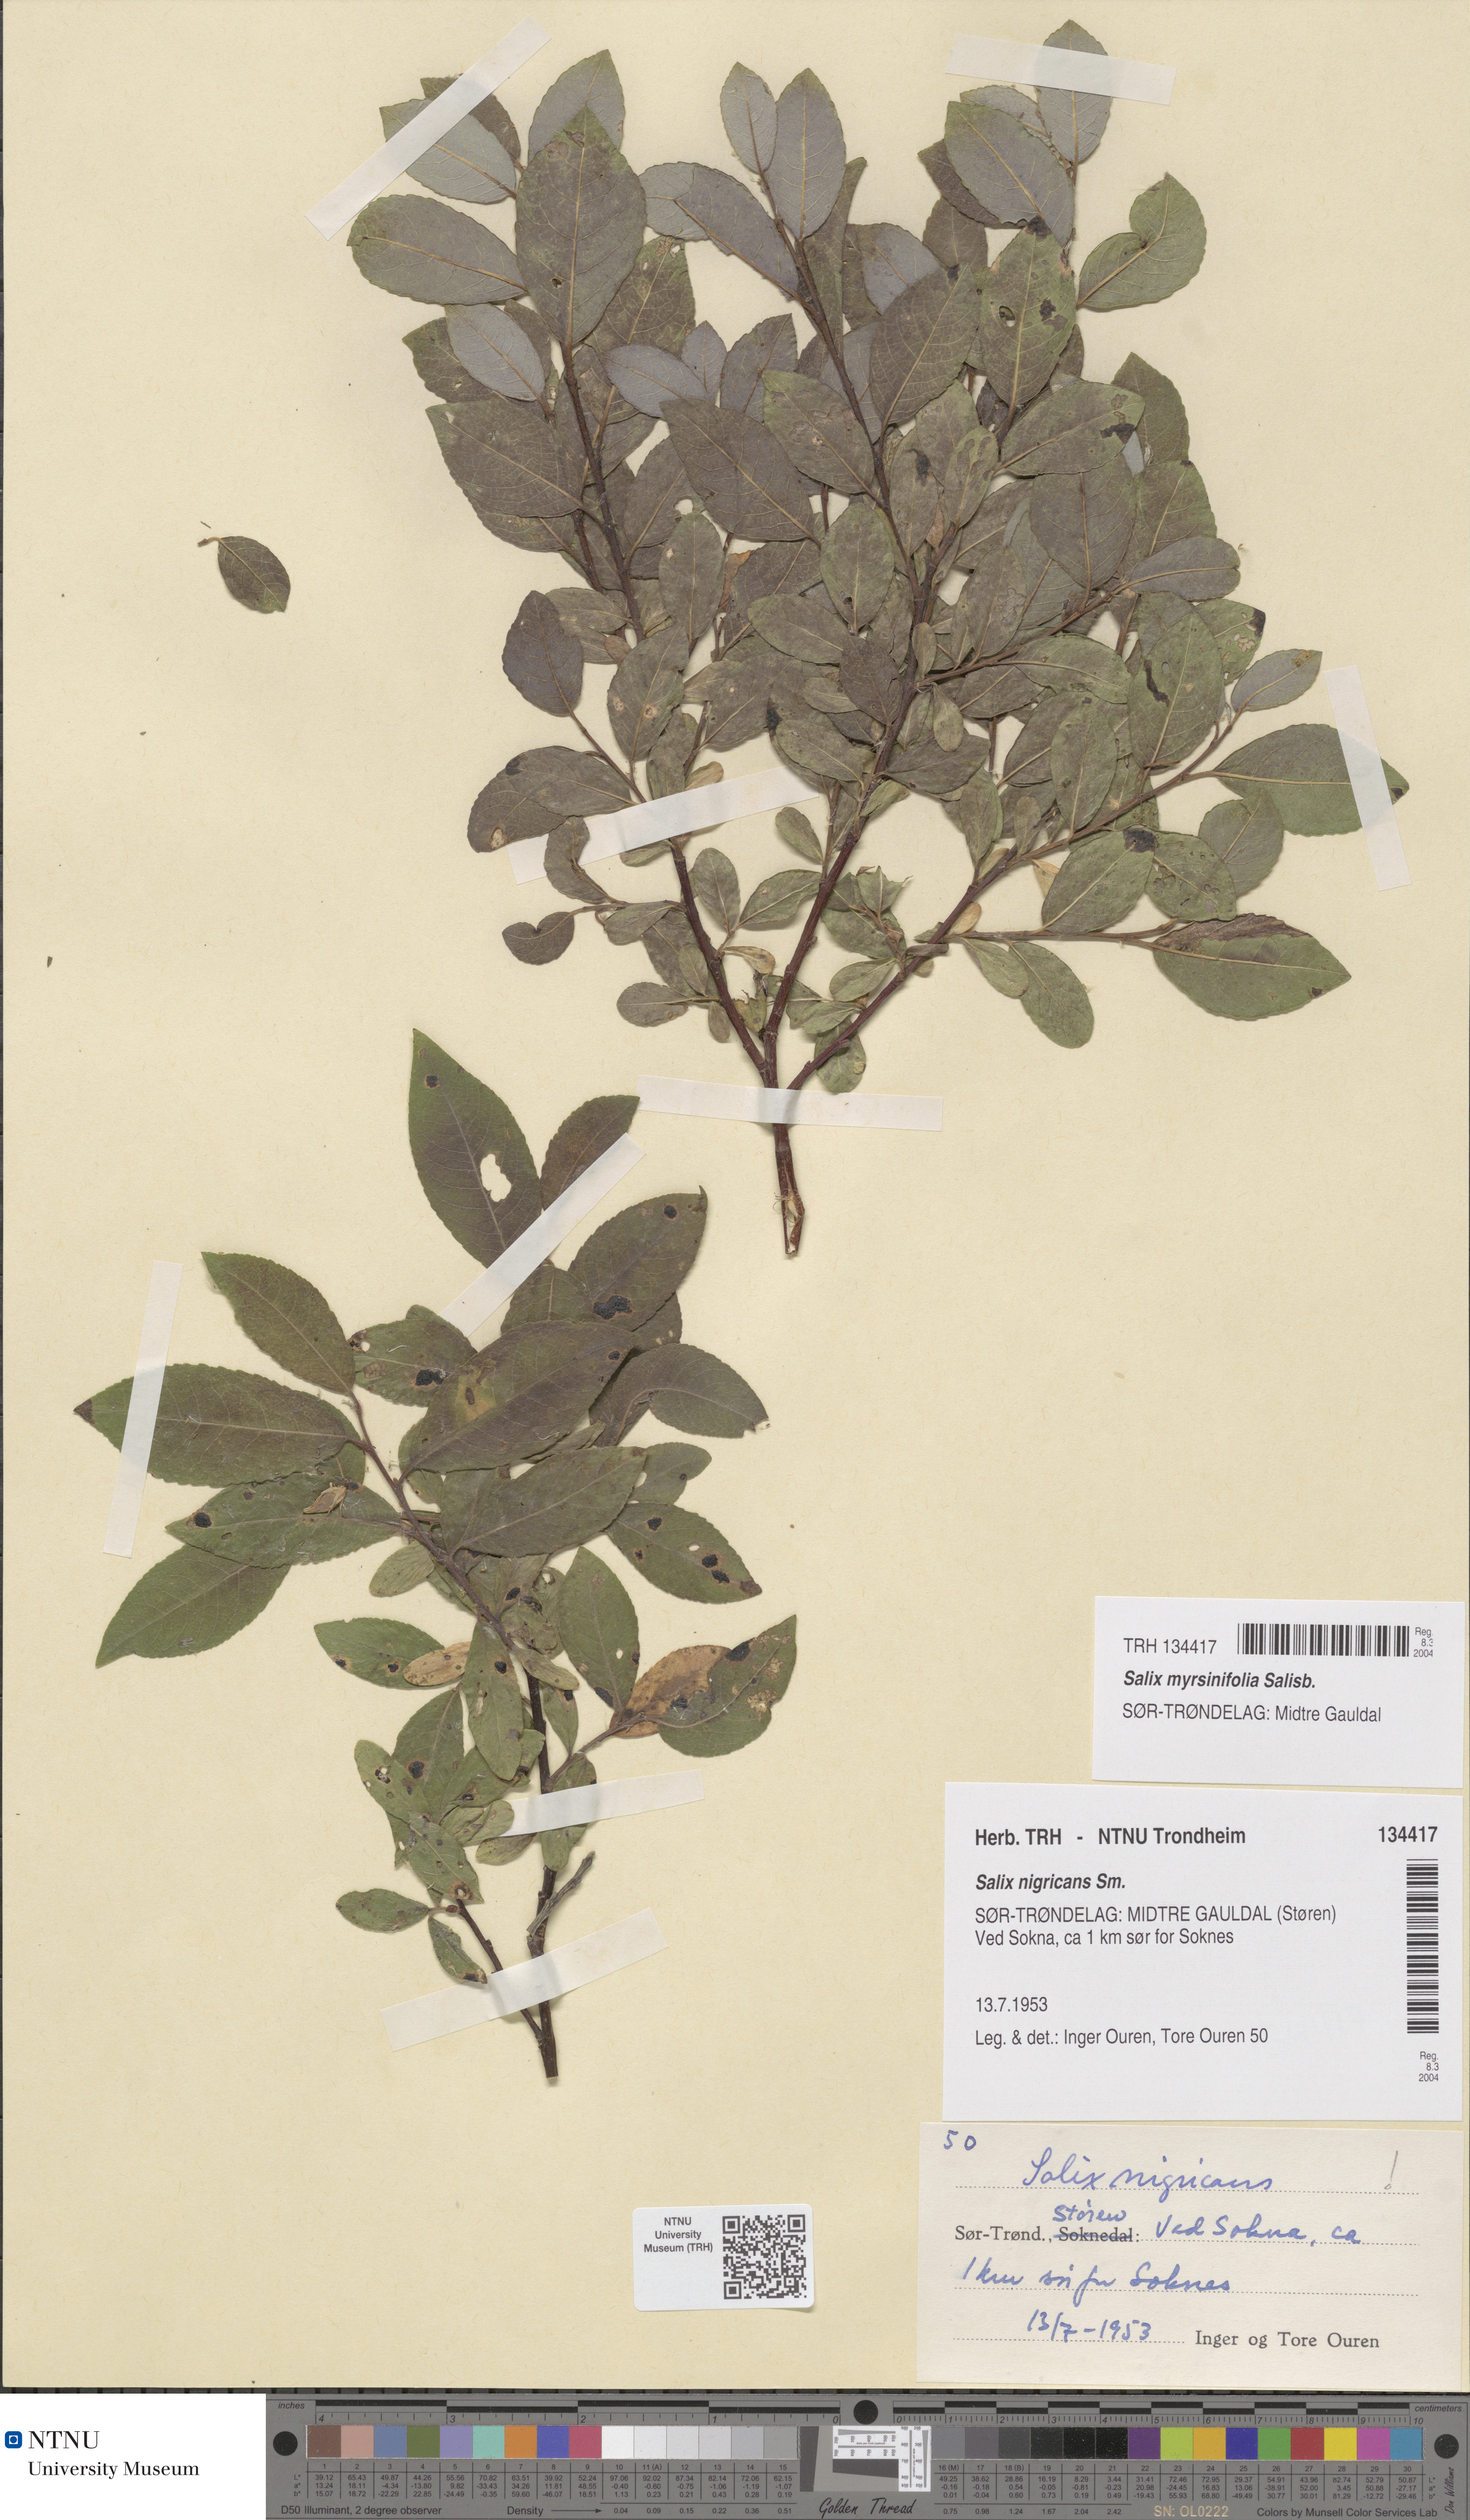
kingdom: Plantae
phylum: Tracheophyta
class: Magnoliopsida
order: Malpighiales
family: Salicaceae
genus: Salix
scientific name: Salix myrsinifolia
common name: Dark-leaved willow
